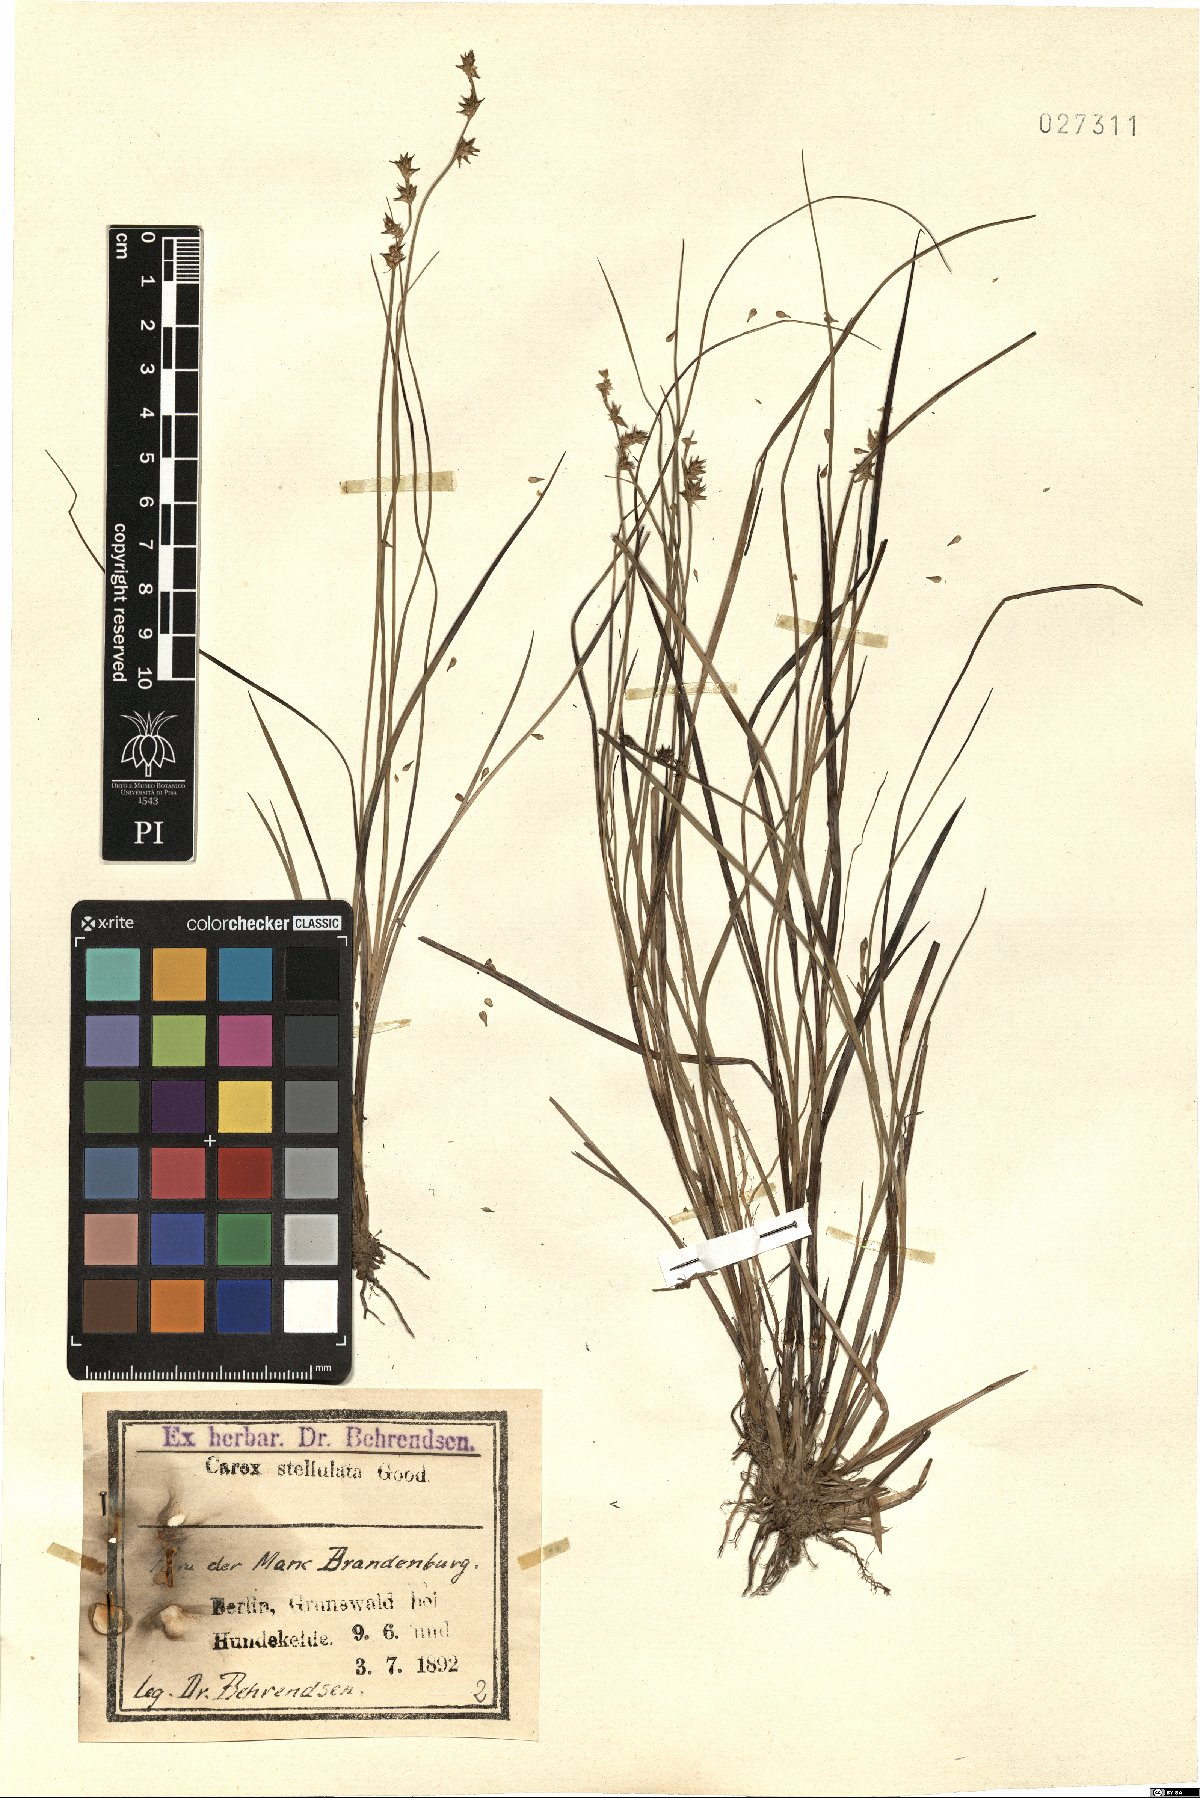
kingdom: Plantae
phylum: Tracheophyta
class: Liliopsida
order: Poales
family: Cyperaceae
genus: Carex
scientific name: Carex echinata
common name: Star sedge
